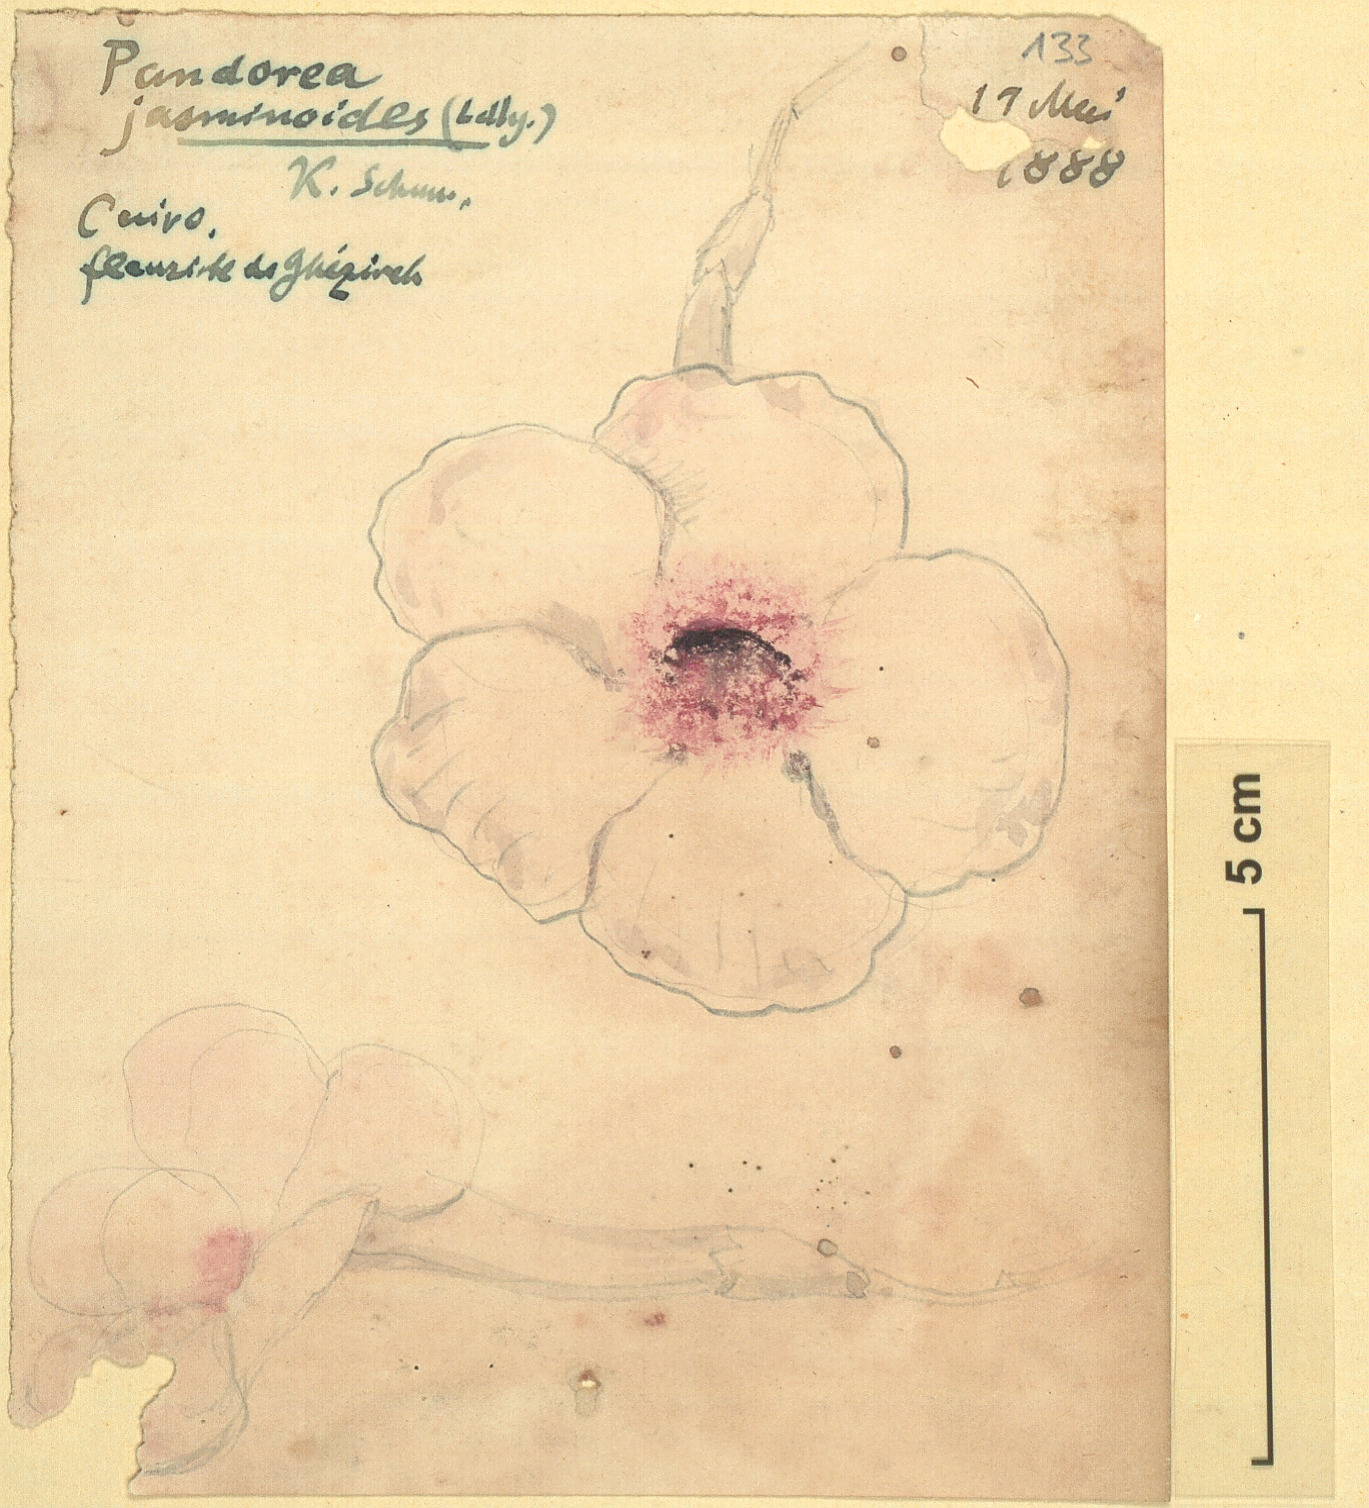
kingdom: Plantae
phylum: Tracheophyta
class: Magnoliopsida
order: Lamiales
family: Bignoniaceae
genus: Pandorea
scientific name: Pandorea jasminoides
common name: Bowerplant
